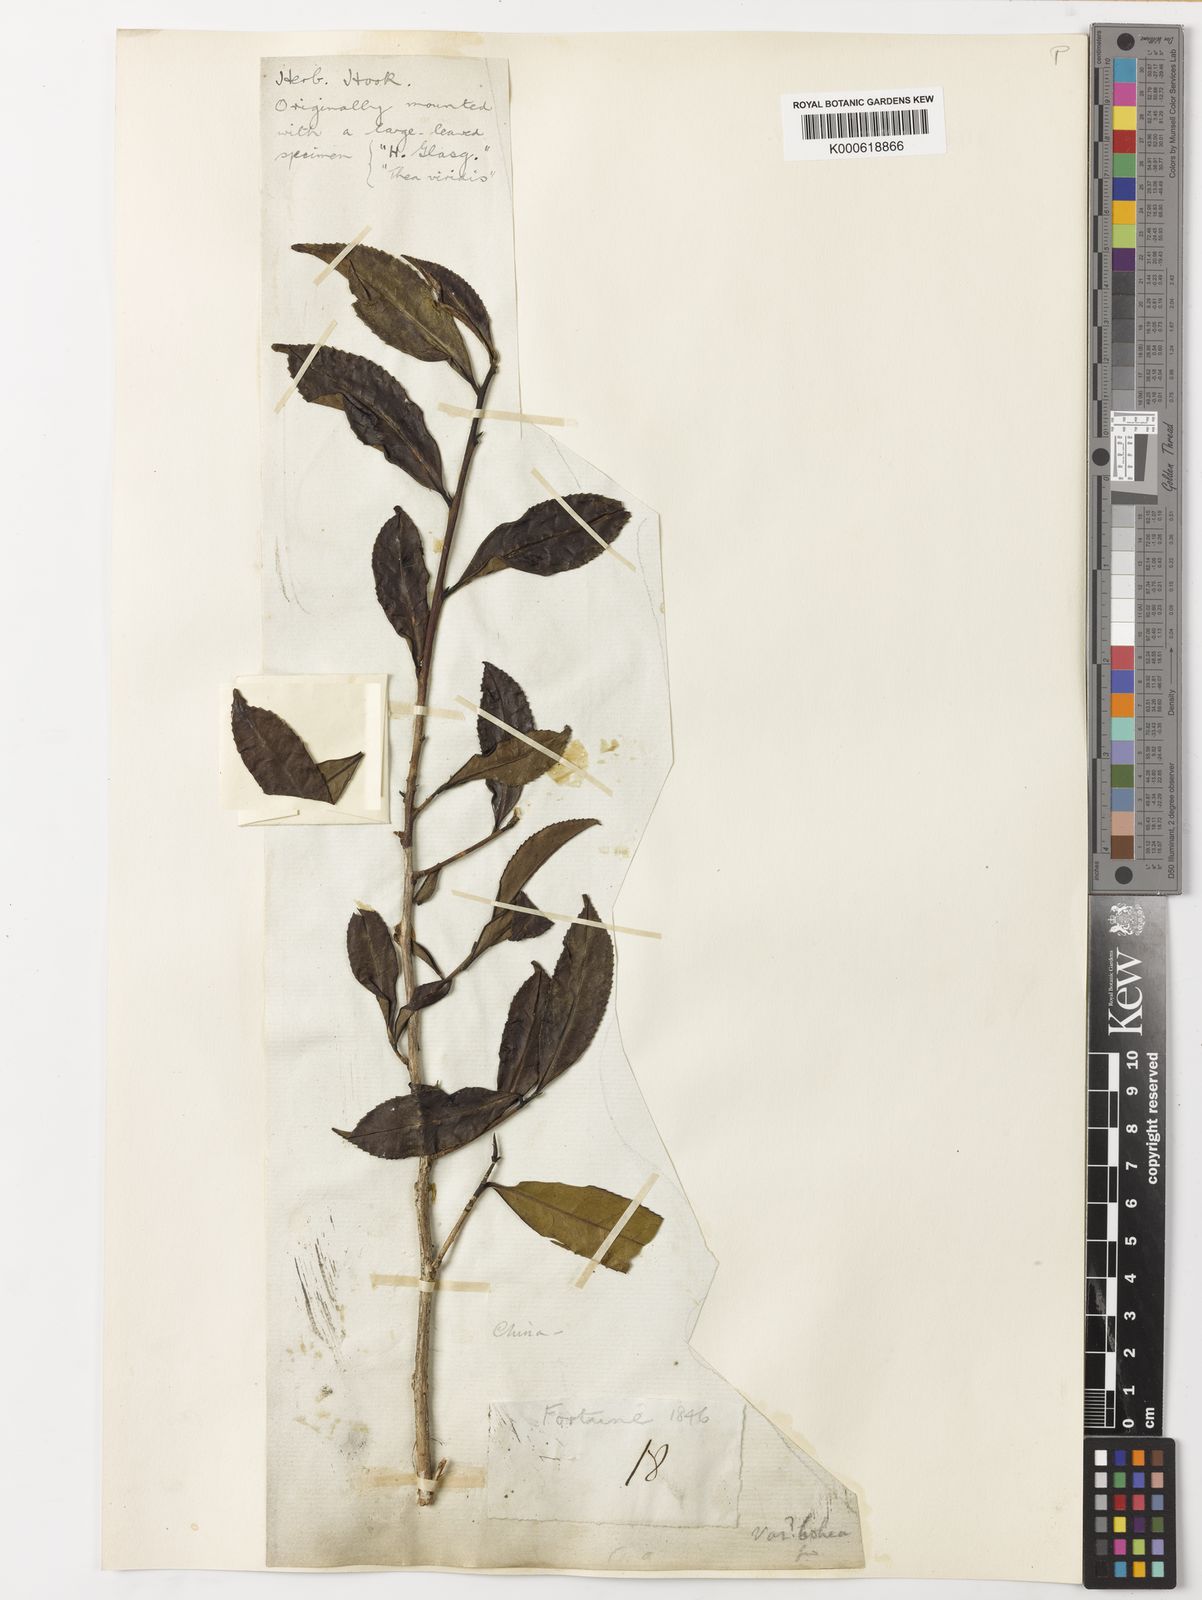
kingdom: Plantae
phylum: Tracheophyta
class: Magnoliopsida
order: Ericales
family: Theaceae
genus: Camellia
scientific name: Camellia
